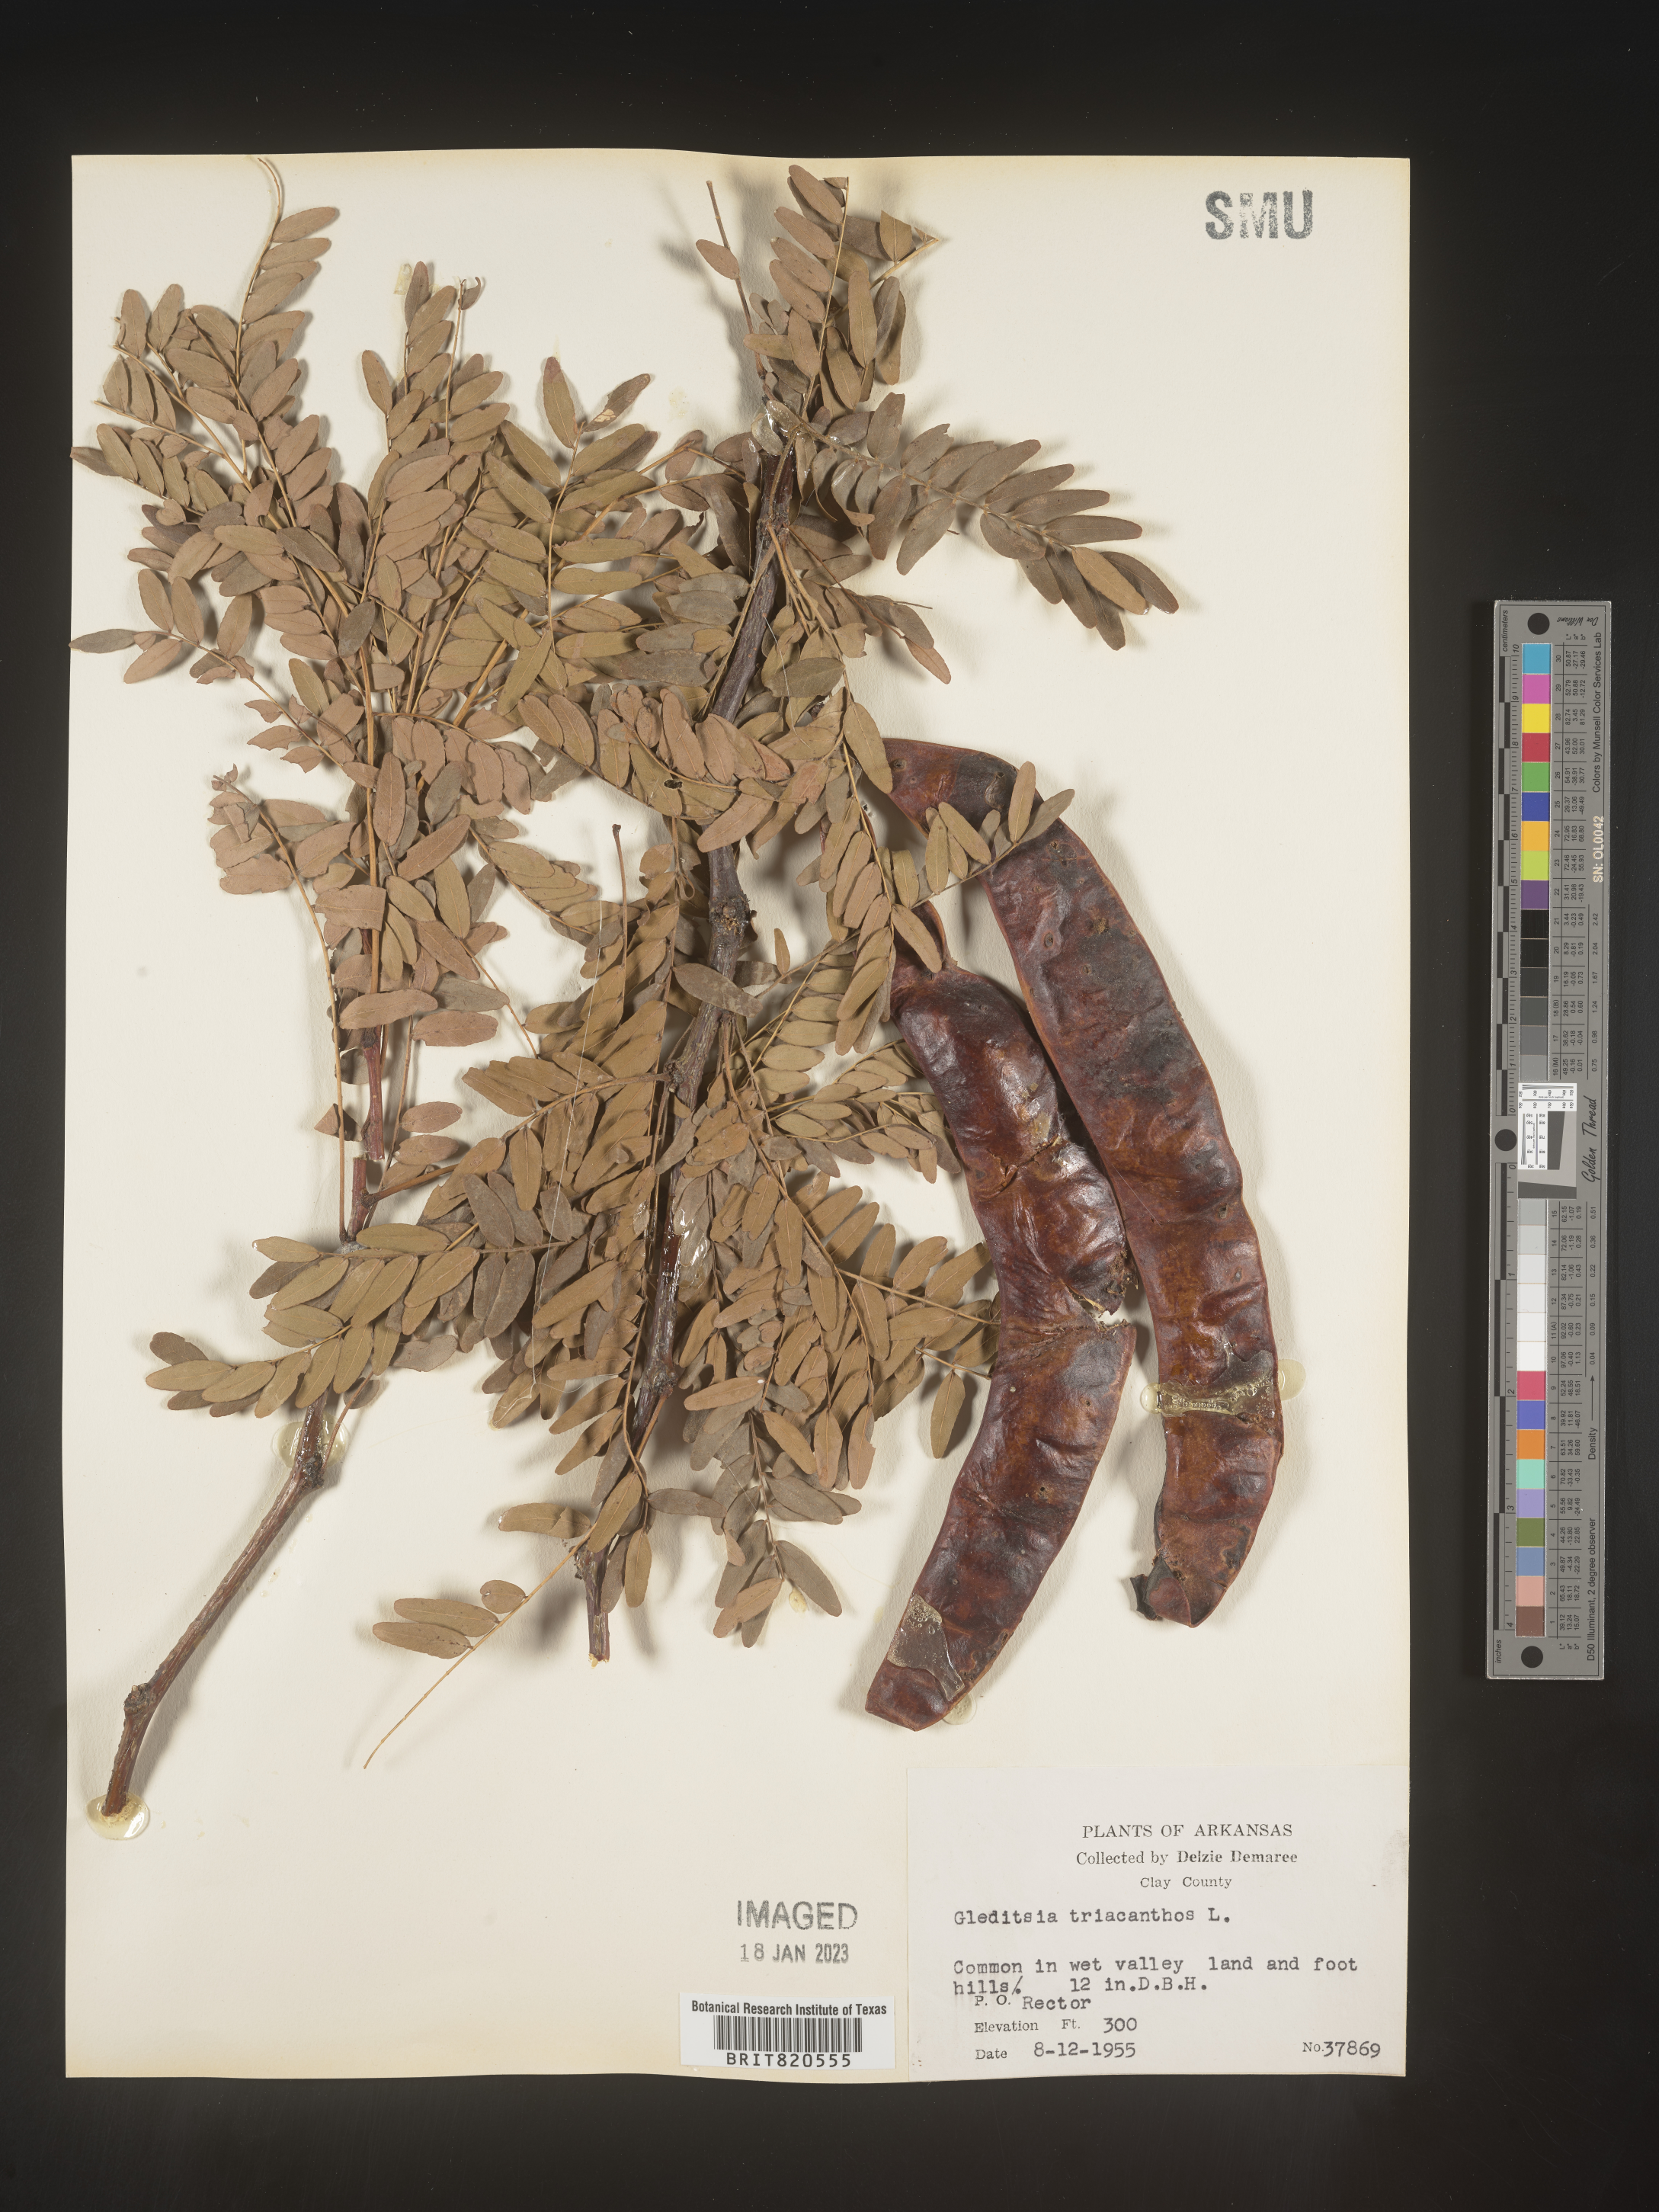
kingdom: Plantae
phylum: Tracheophyta
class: Magnoliopsida
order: Fabales
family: Fabaceae
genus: Gleditsia
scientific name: Gleditsia triacanthos
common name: Common honeylocust
